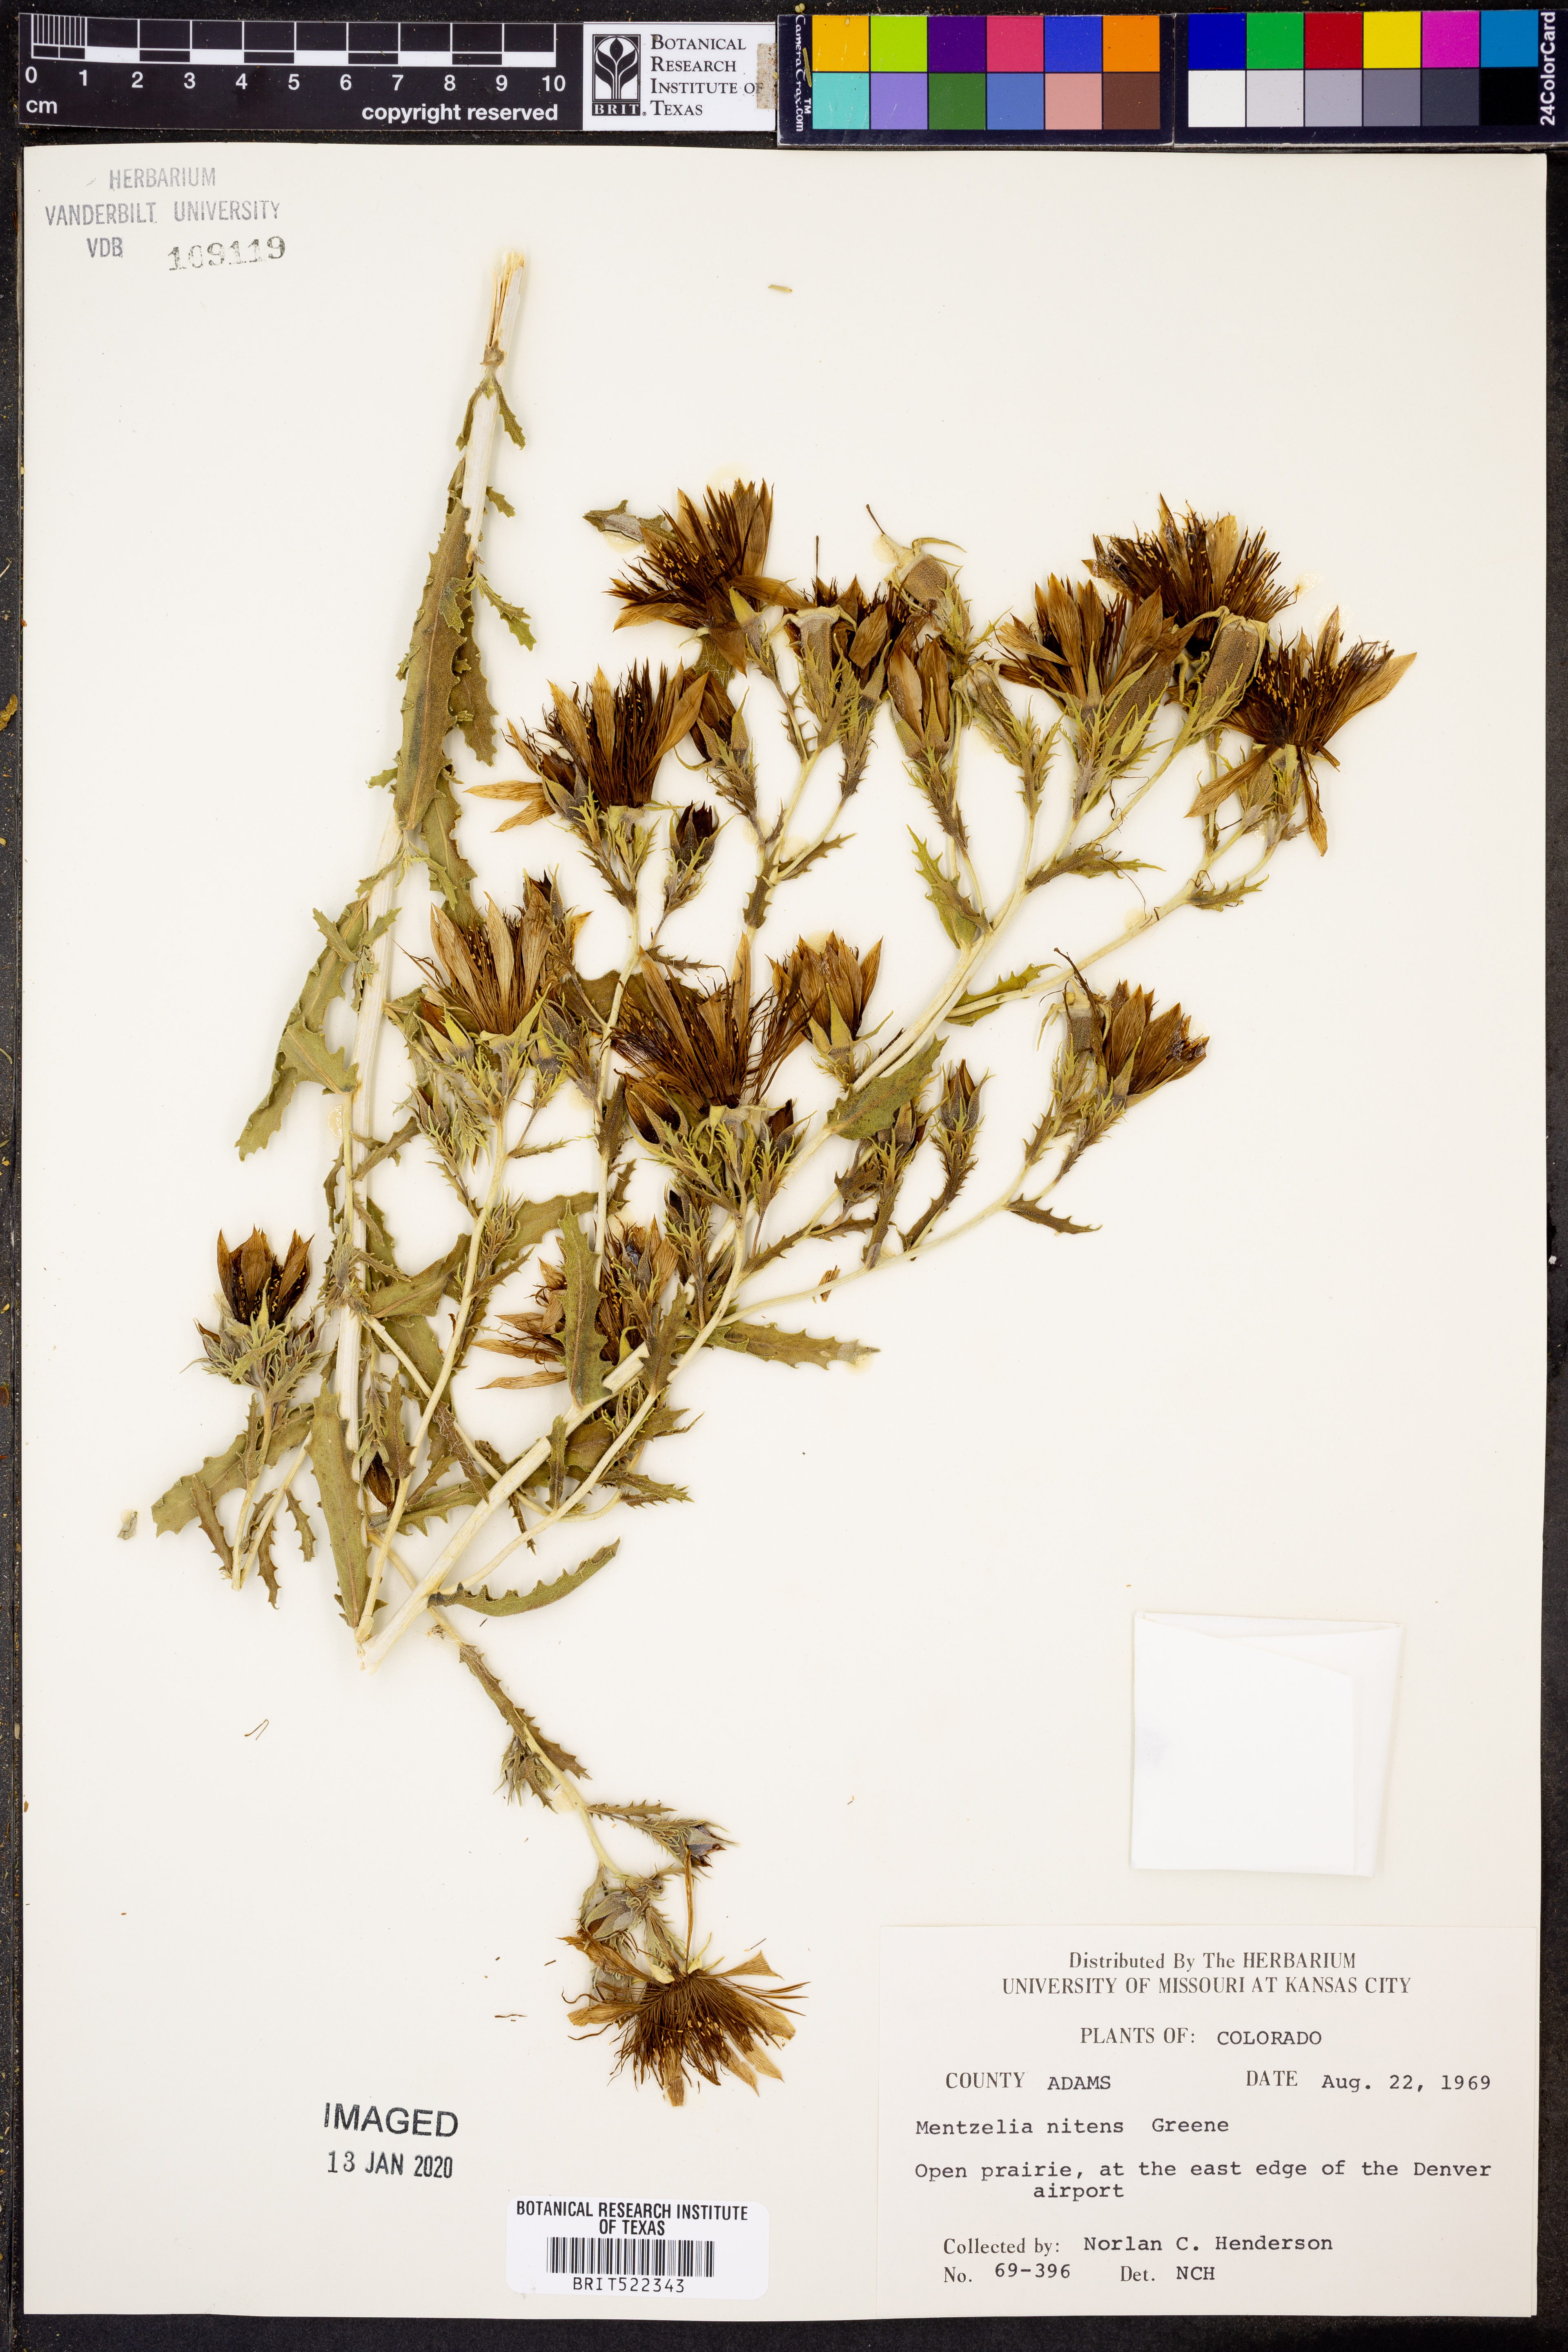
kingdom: Plantae
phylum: Tracheophyta
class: Magnoliopsida
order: Cornales
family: Loasaceae
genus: Mentzelia
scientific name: Mentzelia nitens
